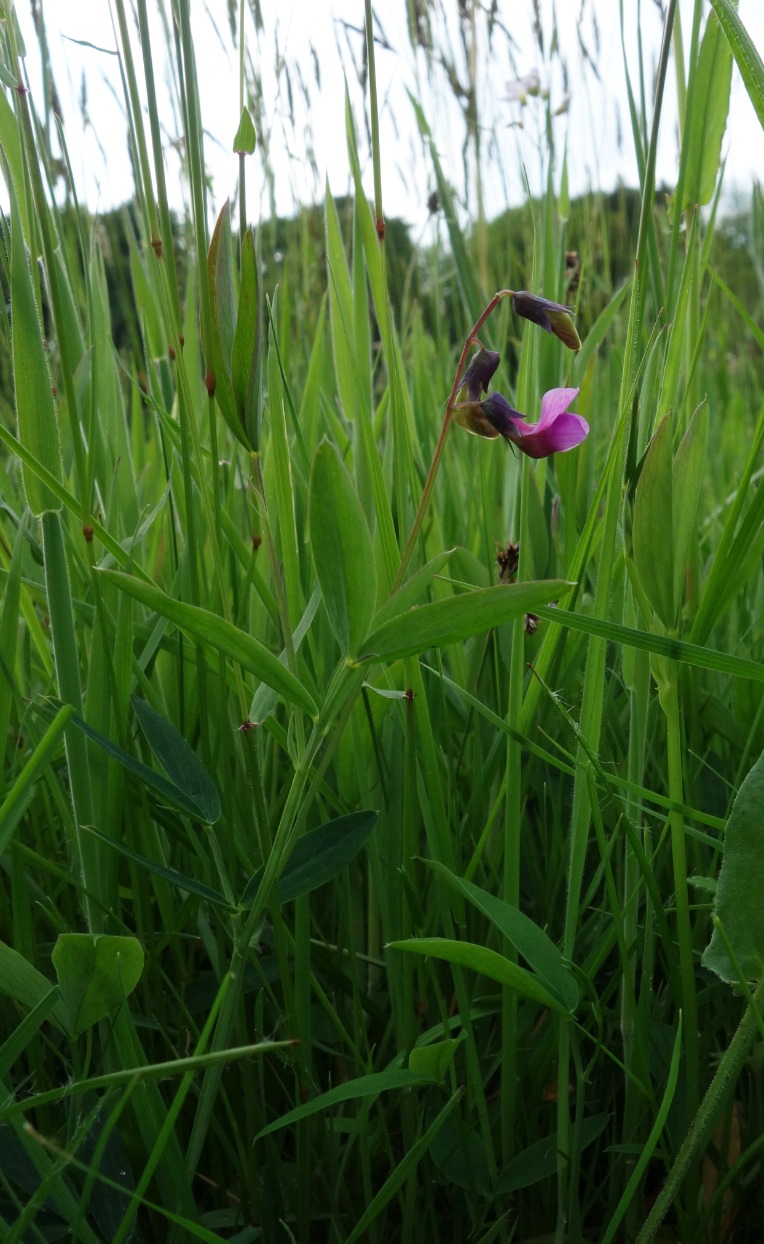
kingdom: Plantae
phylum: Tracheophyta
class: Magnoliopsida
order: Fabales
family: Fabaceae
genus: Lathyrus
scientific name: Lathyrus linifolius
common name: Krat-fladbælg
